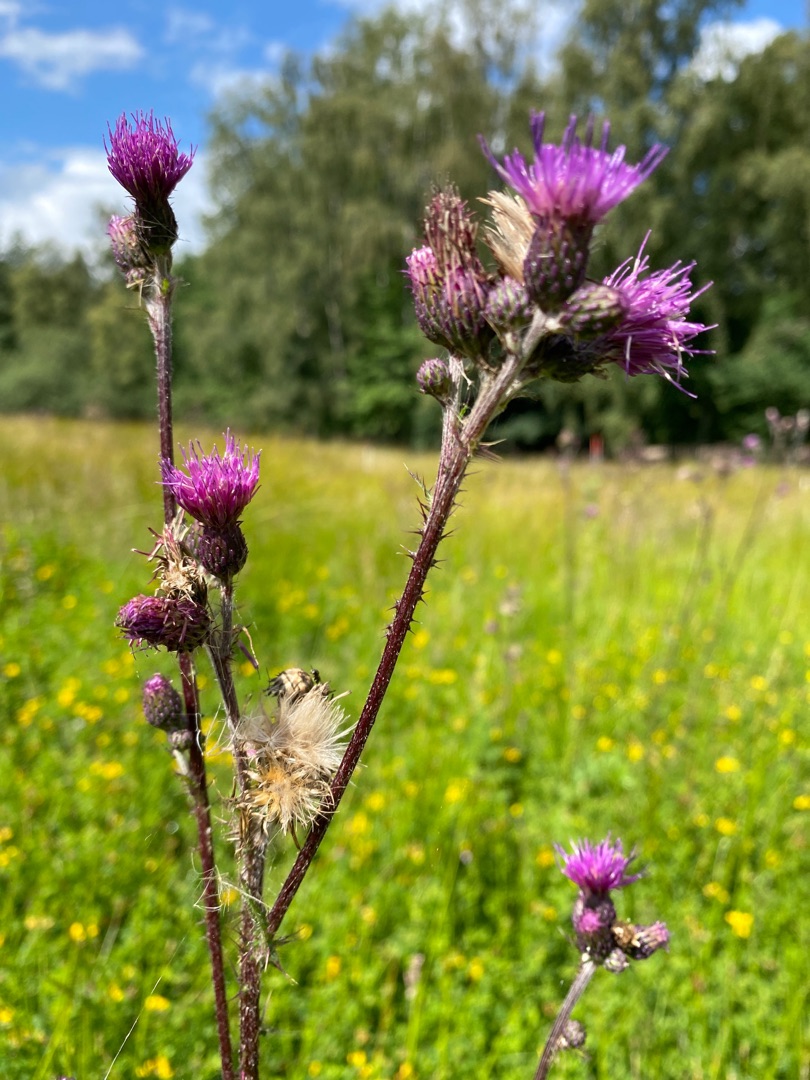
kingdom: Plantae
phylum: Tracheophyta
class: Magnoliopsida
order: Asterales
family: Asteraceae
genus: Cirsium
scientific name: Cirsium palustre
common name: Kær-tidsel
